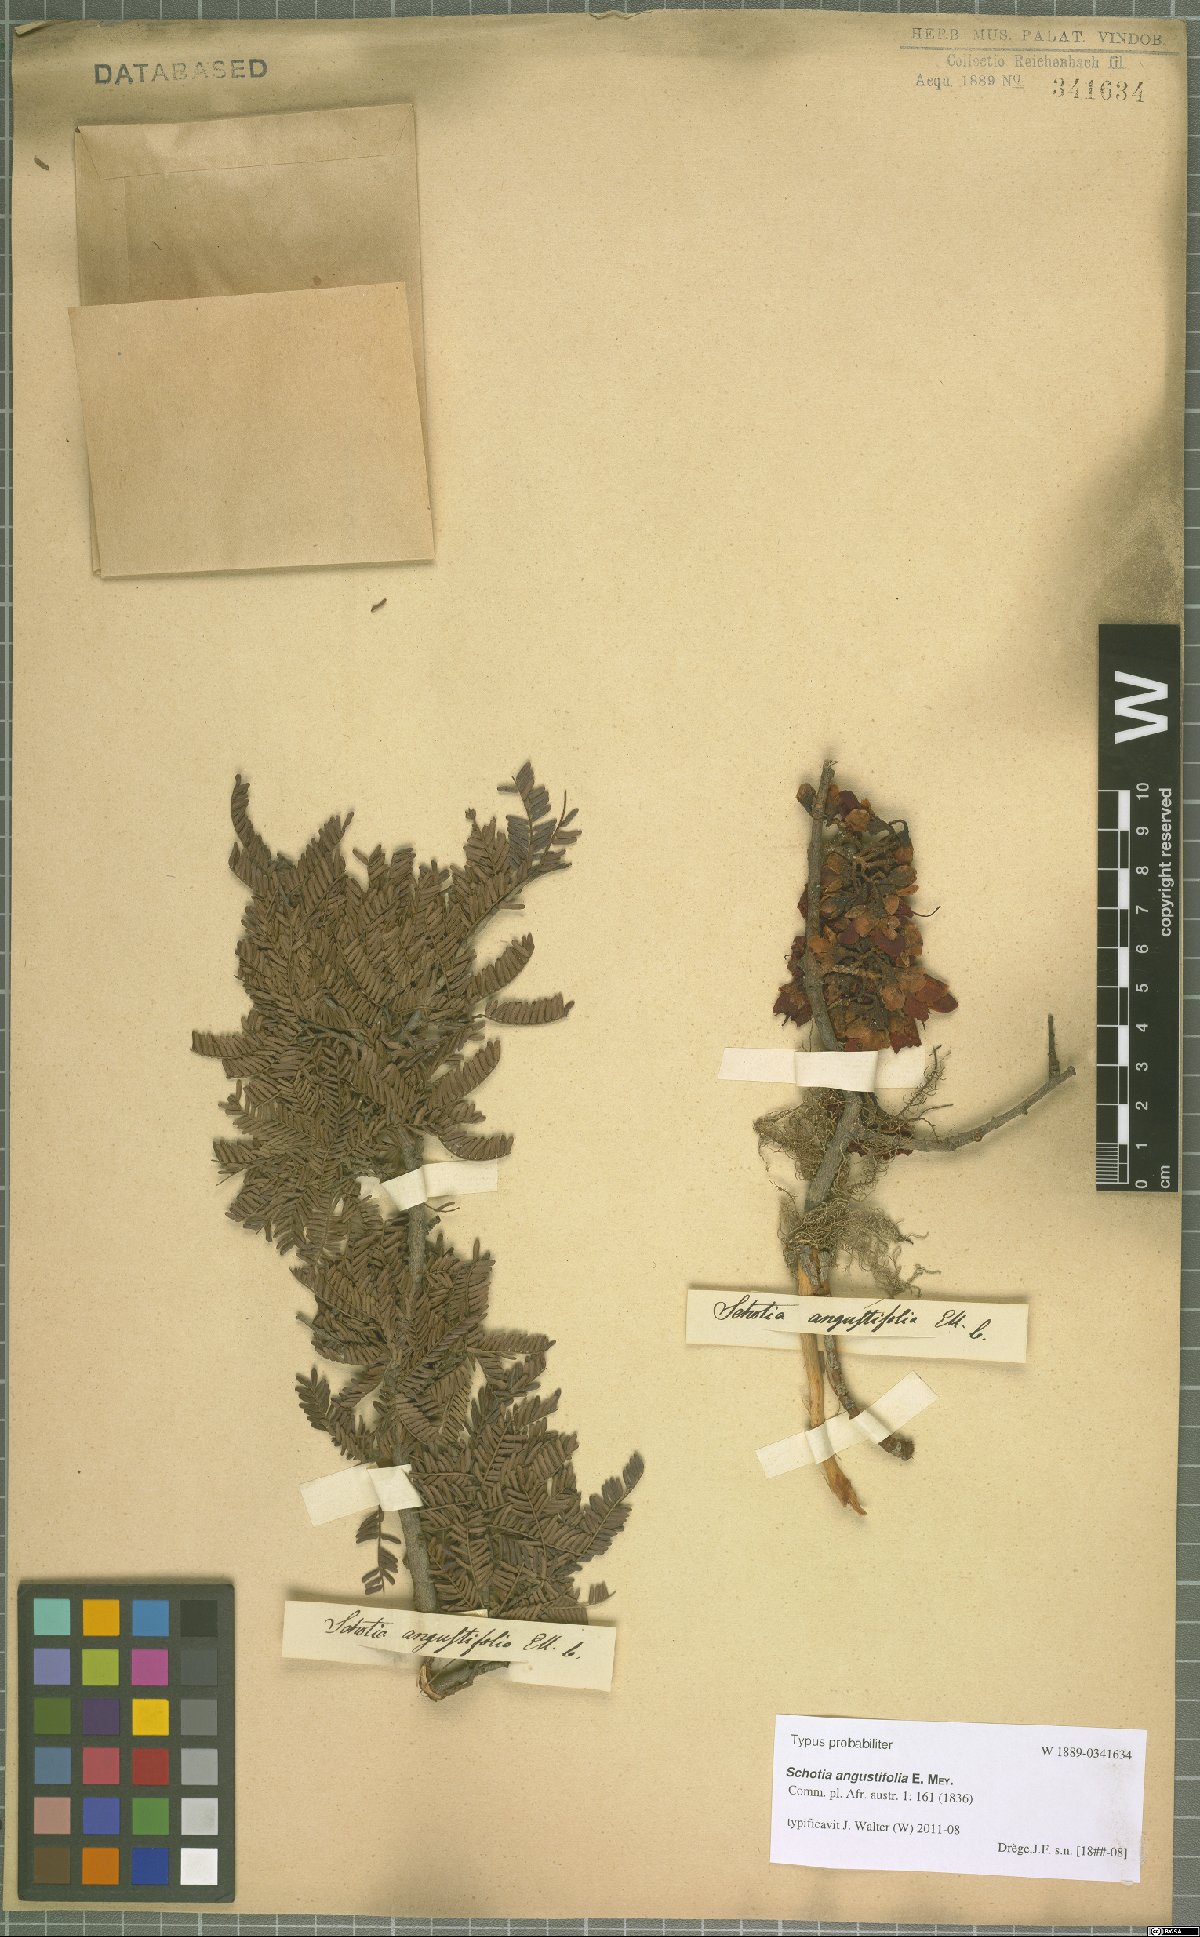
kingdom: Plantae
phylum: Tracheophyta
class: Magnoliopsida
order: Fabales
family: Fabaceae
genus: Schotia
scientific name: Schotia afra
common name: Hottentot's bean
